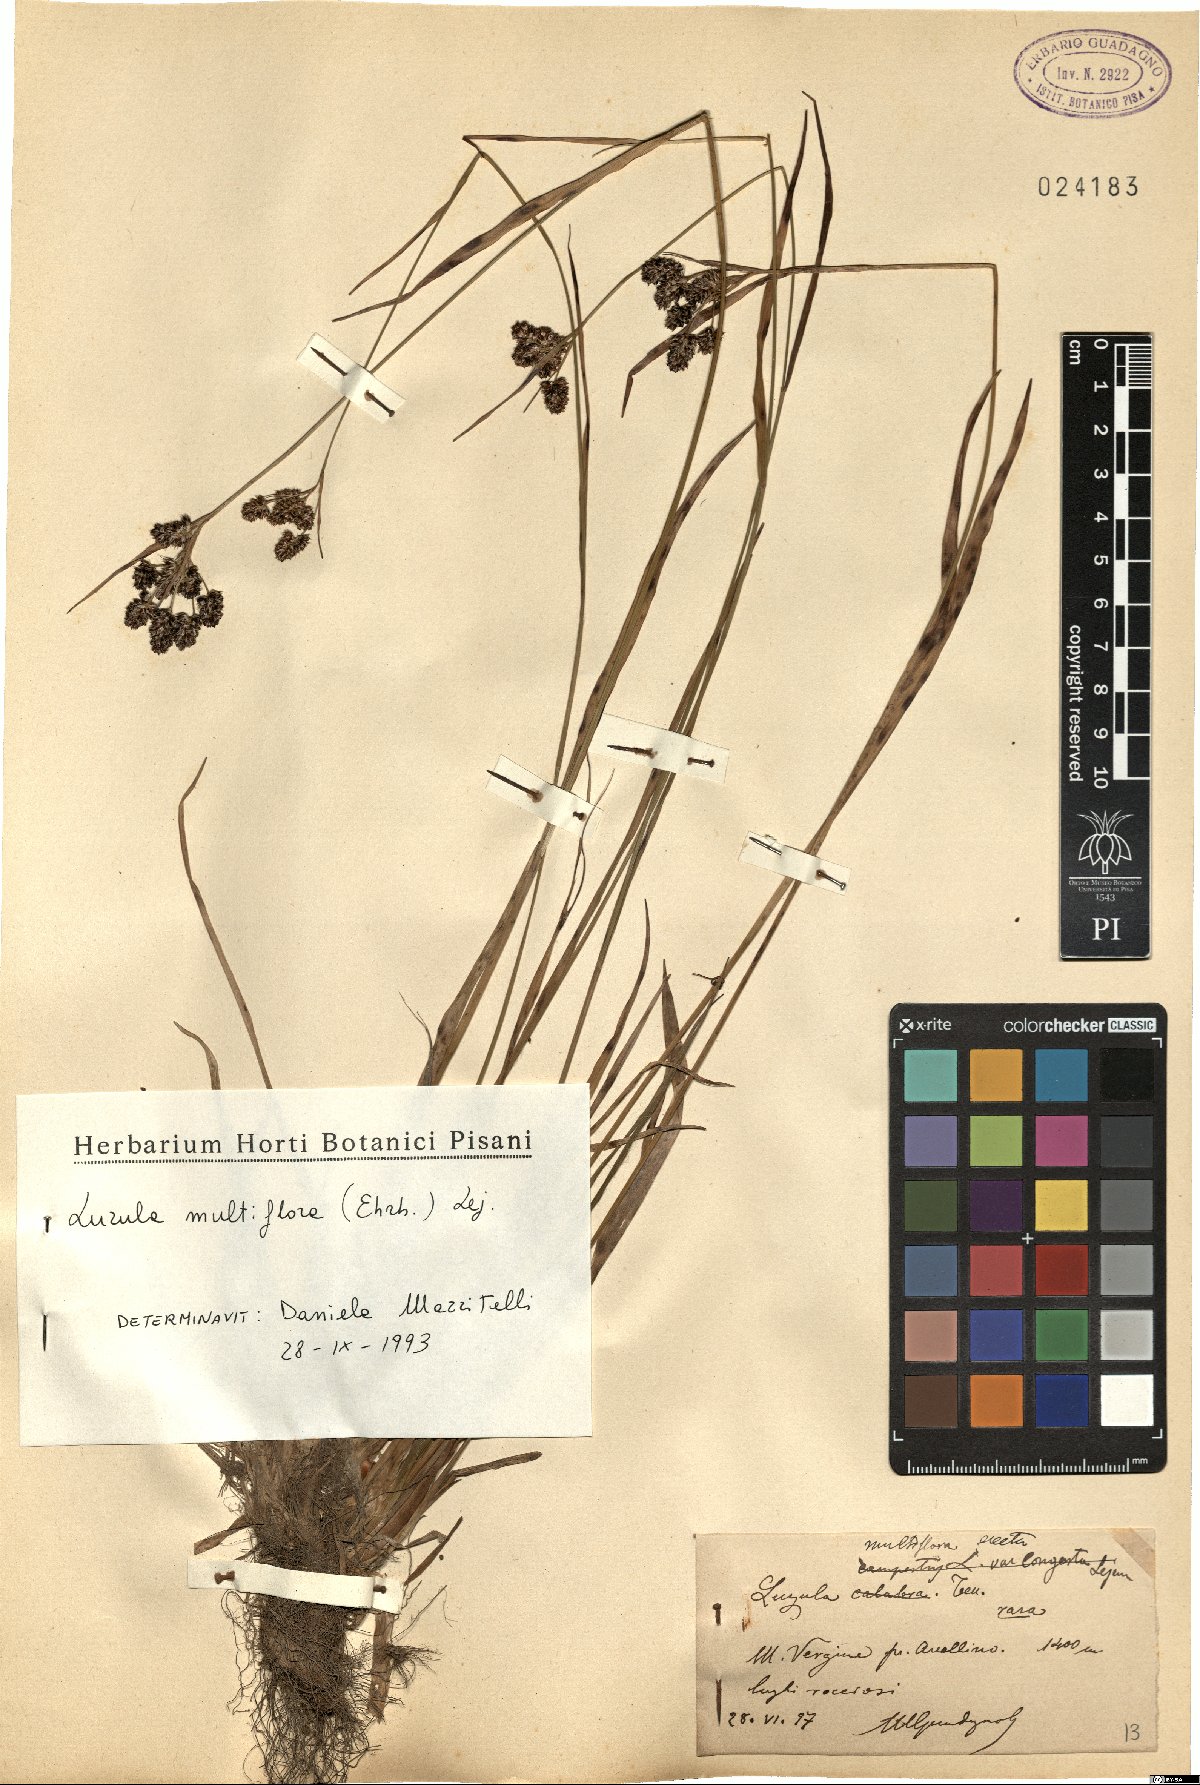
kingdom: Plantae
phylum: Tracheophyta
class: Liliopsida
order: Poales
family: Juncaceae
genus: Luzula
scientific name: Luzula multiflora
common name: Heath wood-rush
